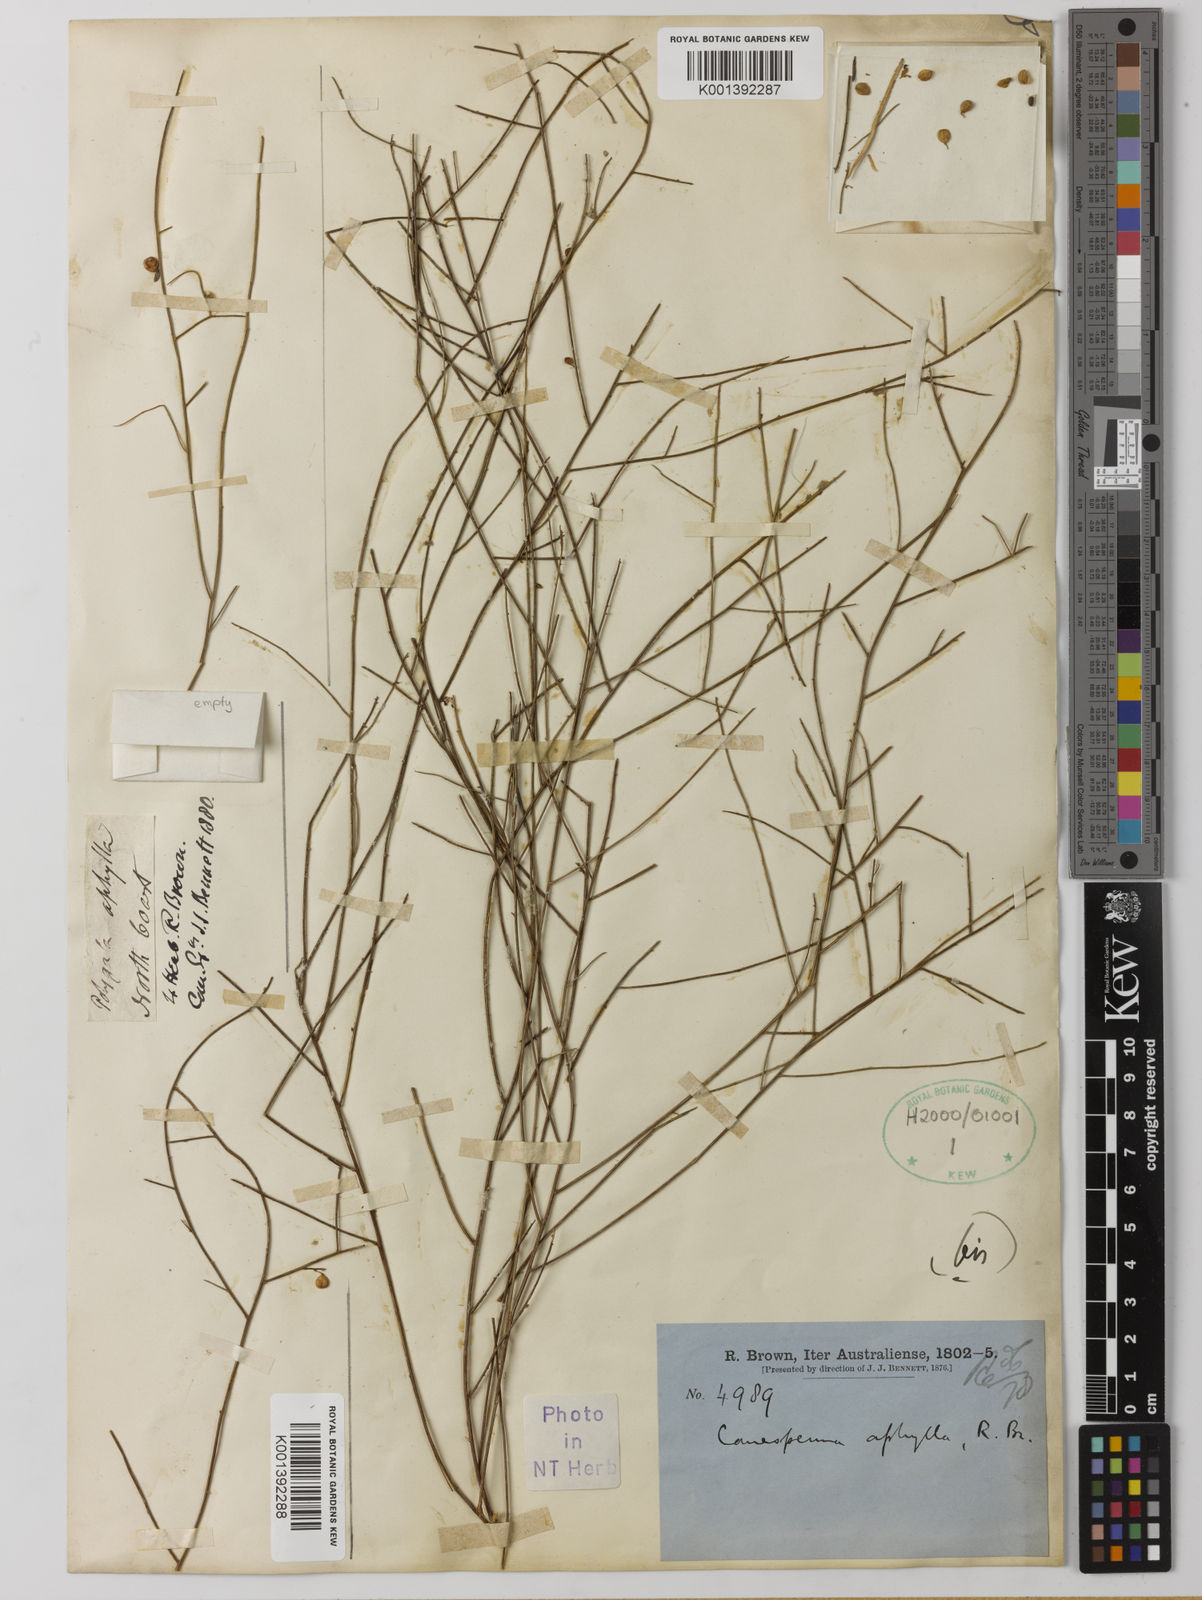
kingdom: Plantae
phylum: Tracheophyta
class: Magnoliopsida
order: Fabales
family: Polygalaceae
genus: Comesperma
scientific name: Comesperma
